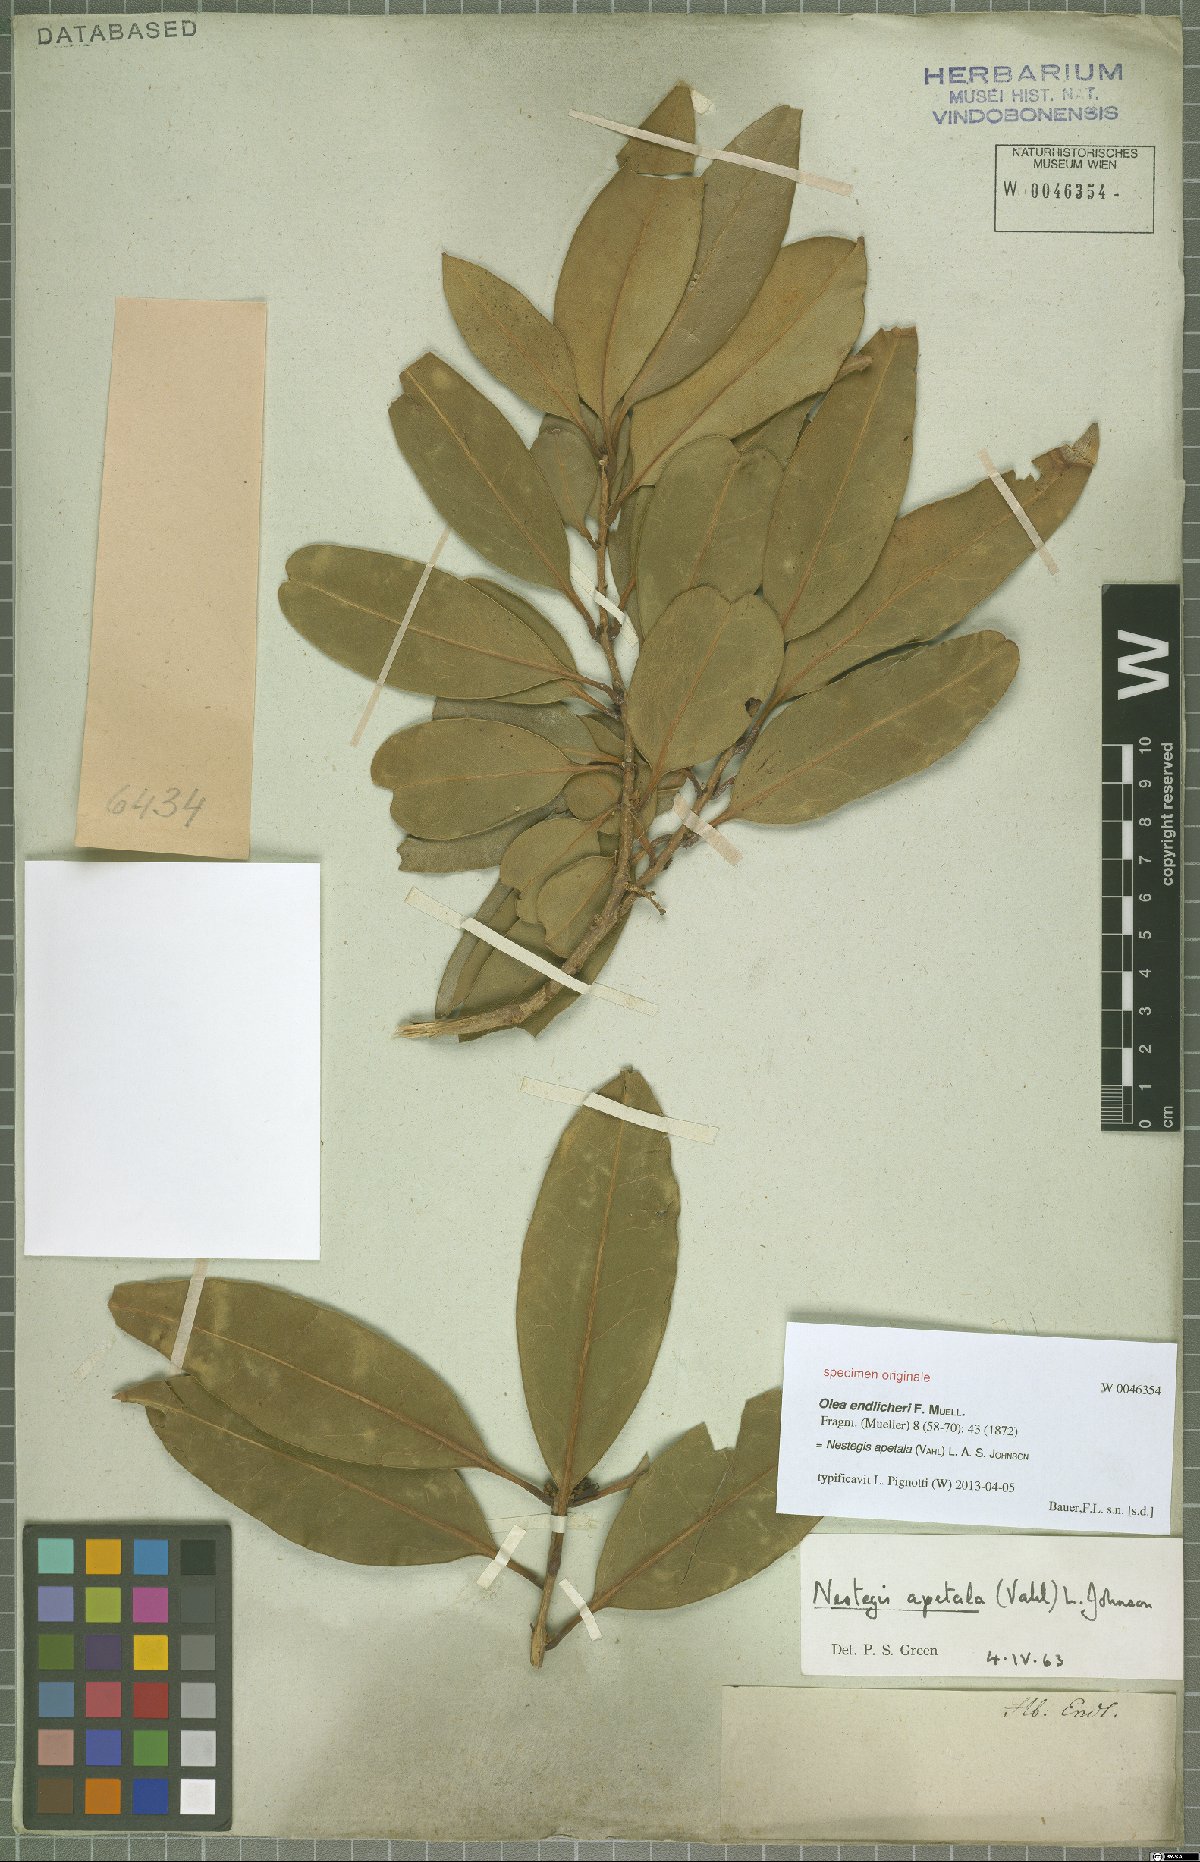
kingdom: Plantae
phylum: Tracheophyta
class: Magnoliopsida
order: Lamiales
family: Oleaceae
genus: Nestegis
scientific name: Nestegis apetala
